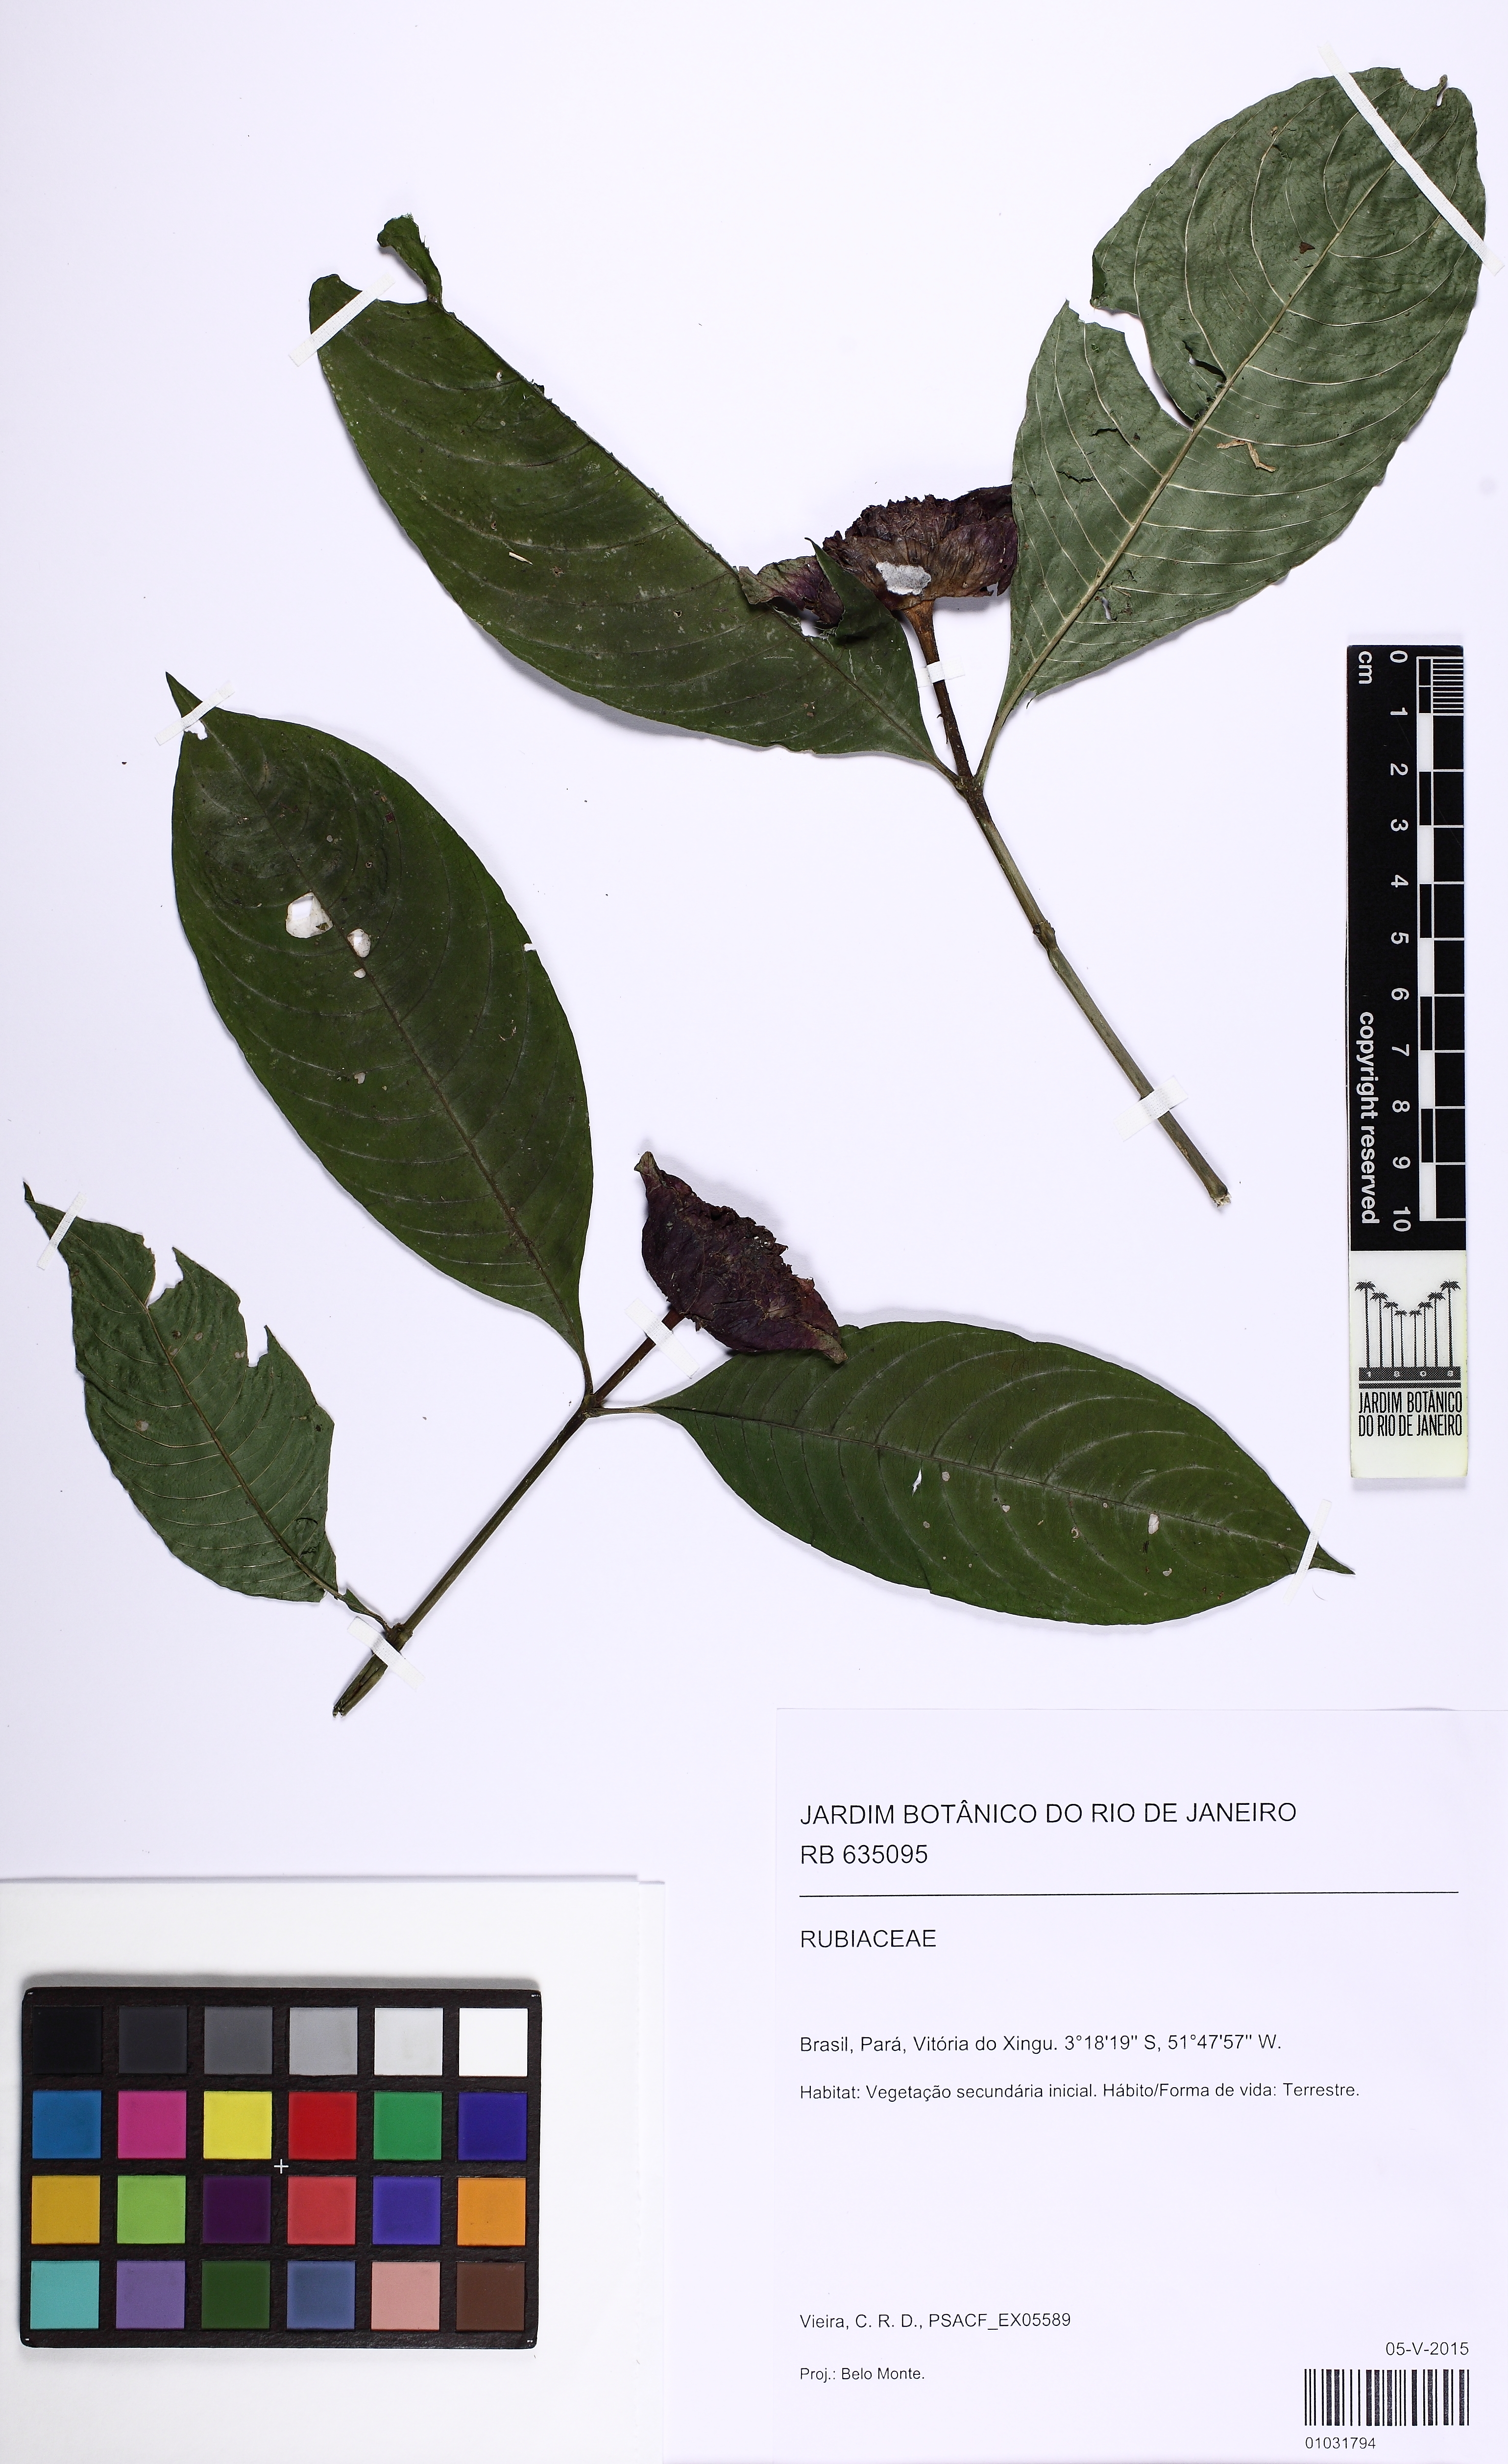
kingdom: Plantae
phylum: Tracheophyta
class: Magnoliopsida
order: Gentianales
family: Rubiaceae
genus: Palicourea
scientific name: Palicourea colorata
